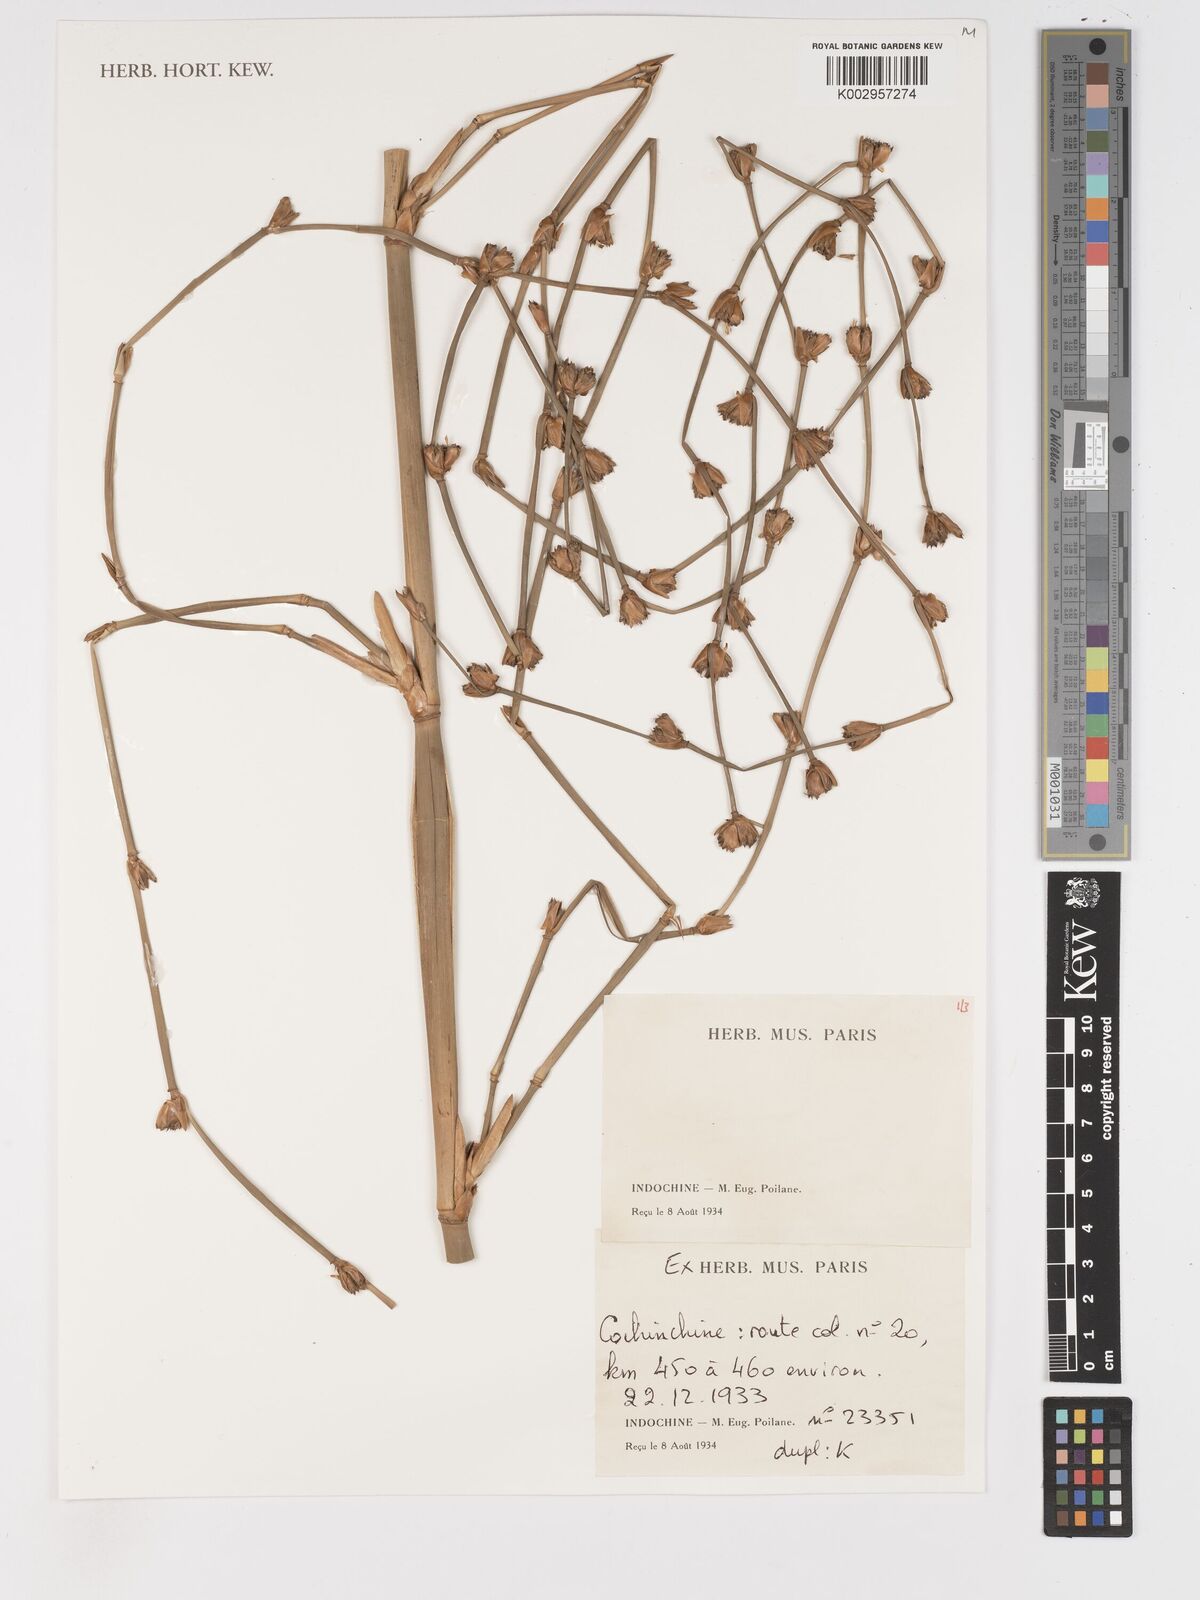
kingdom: Plantae
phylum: Tracheophyta
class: Liliopsida
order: Poales
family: Poaceae
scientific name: Poaceae
